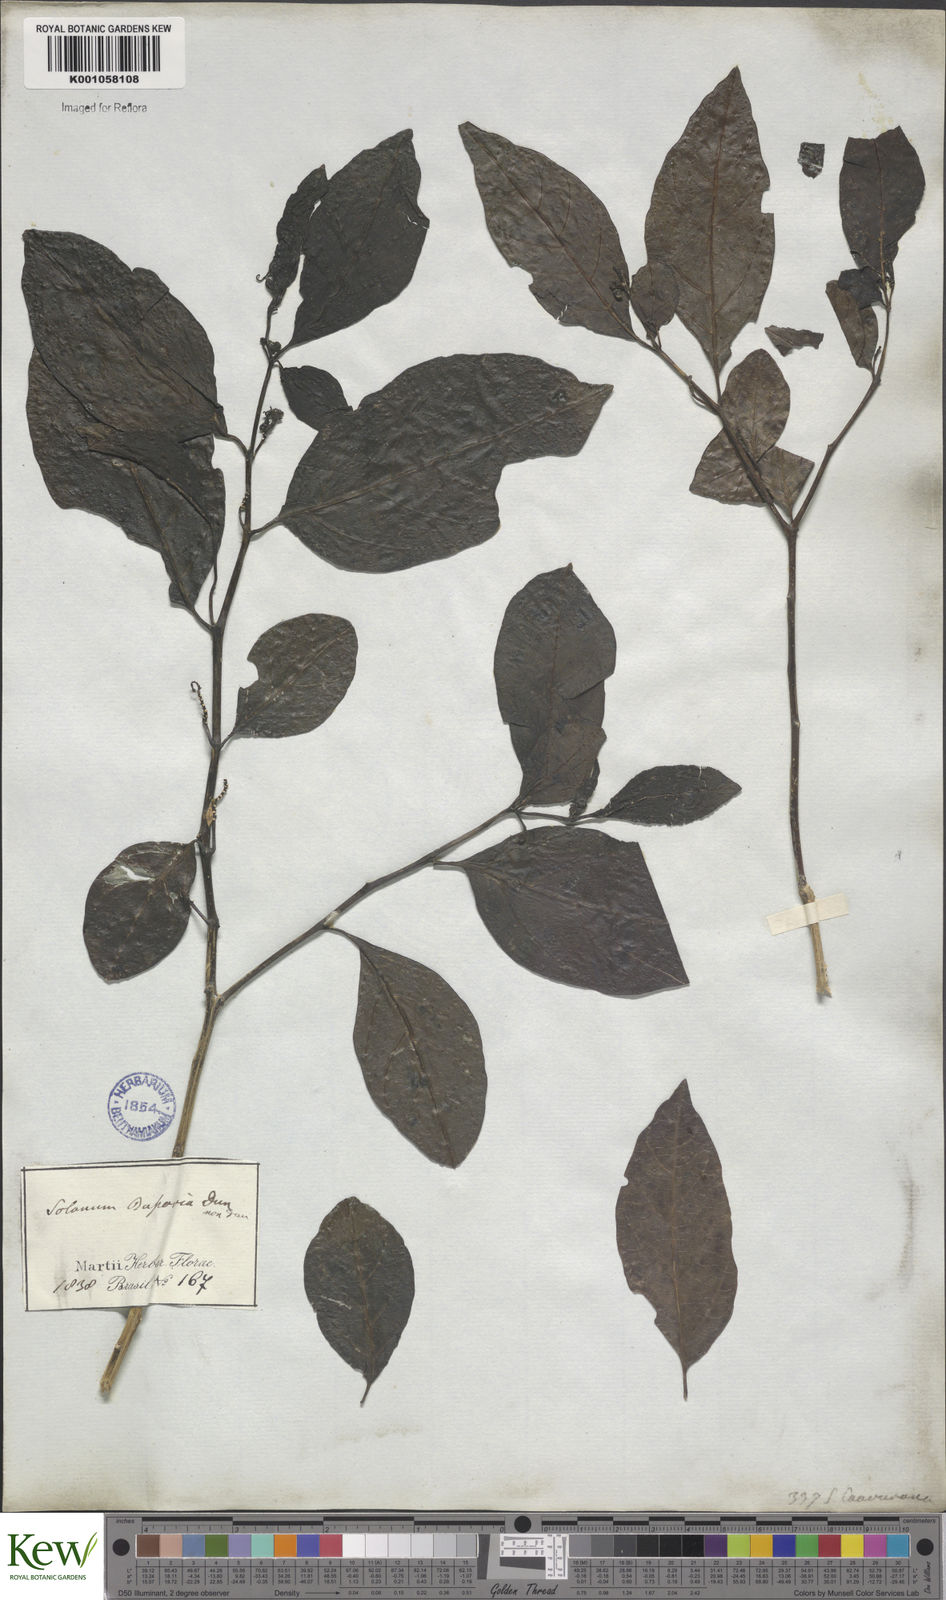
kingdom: Plantae
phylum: Tracheophyta
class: Magnoliopsida
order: Solanales
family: Solanaceae
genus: Solanum
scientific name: Solanum caavurana
